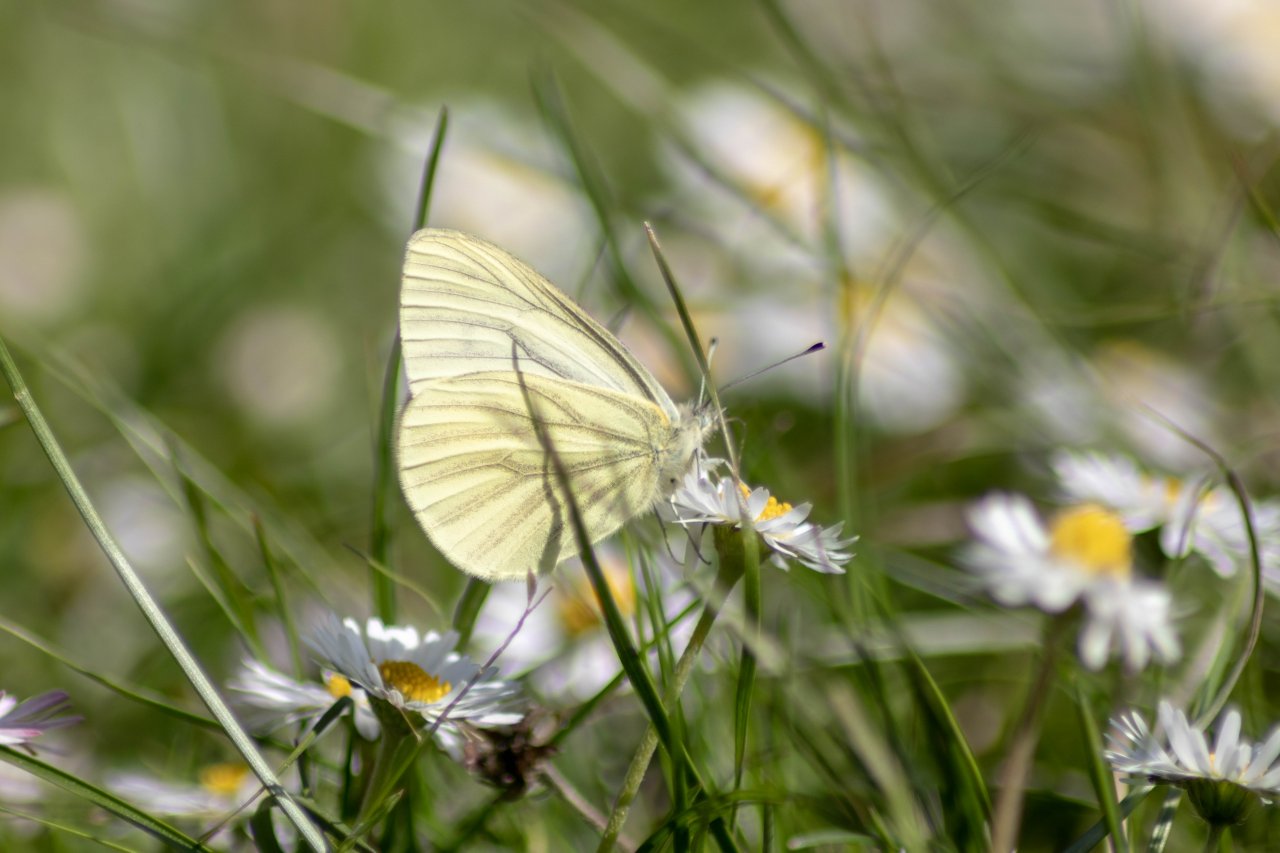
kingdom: Animalia
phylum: Arthropoda
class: Insecta
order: Lepidoptera
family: Pieridae
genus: Pieris
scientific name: Pieris oleracea
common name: Mustard White
